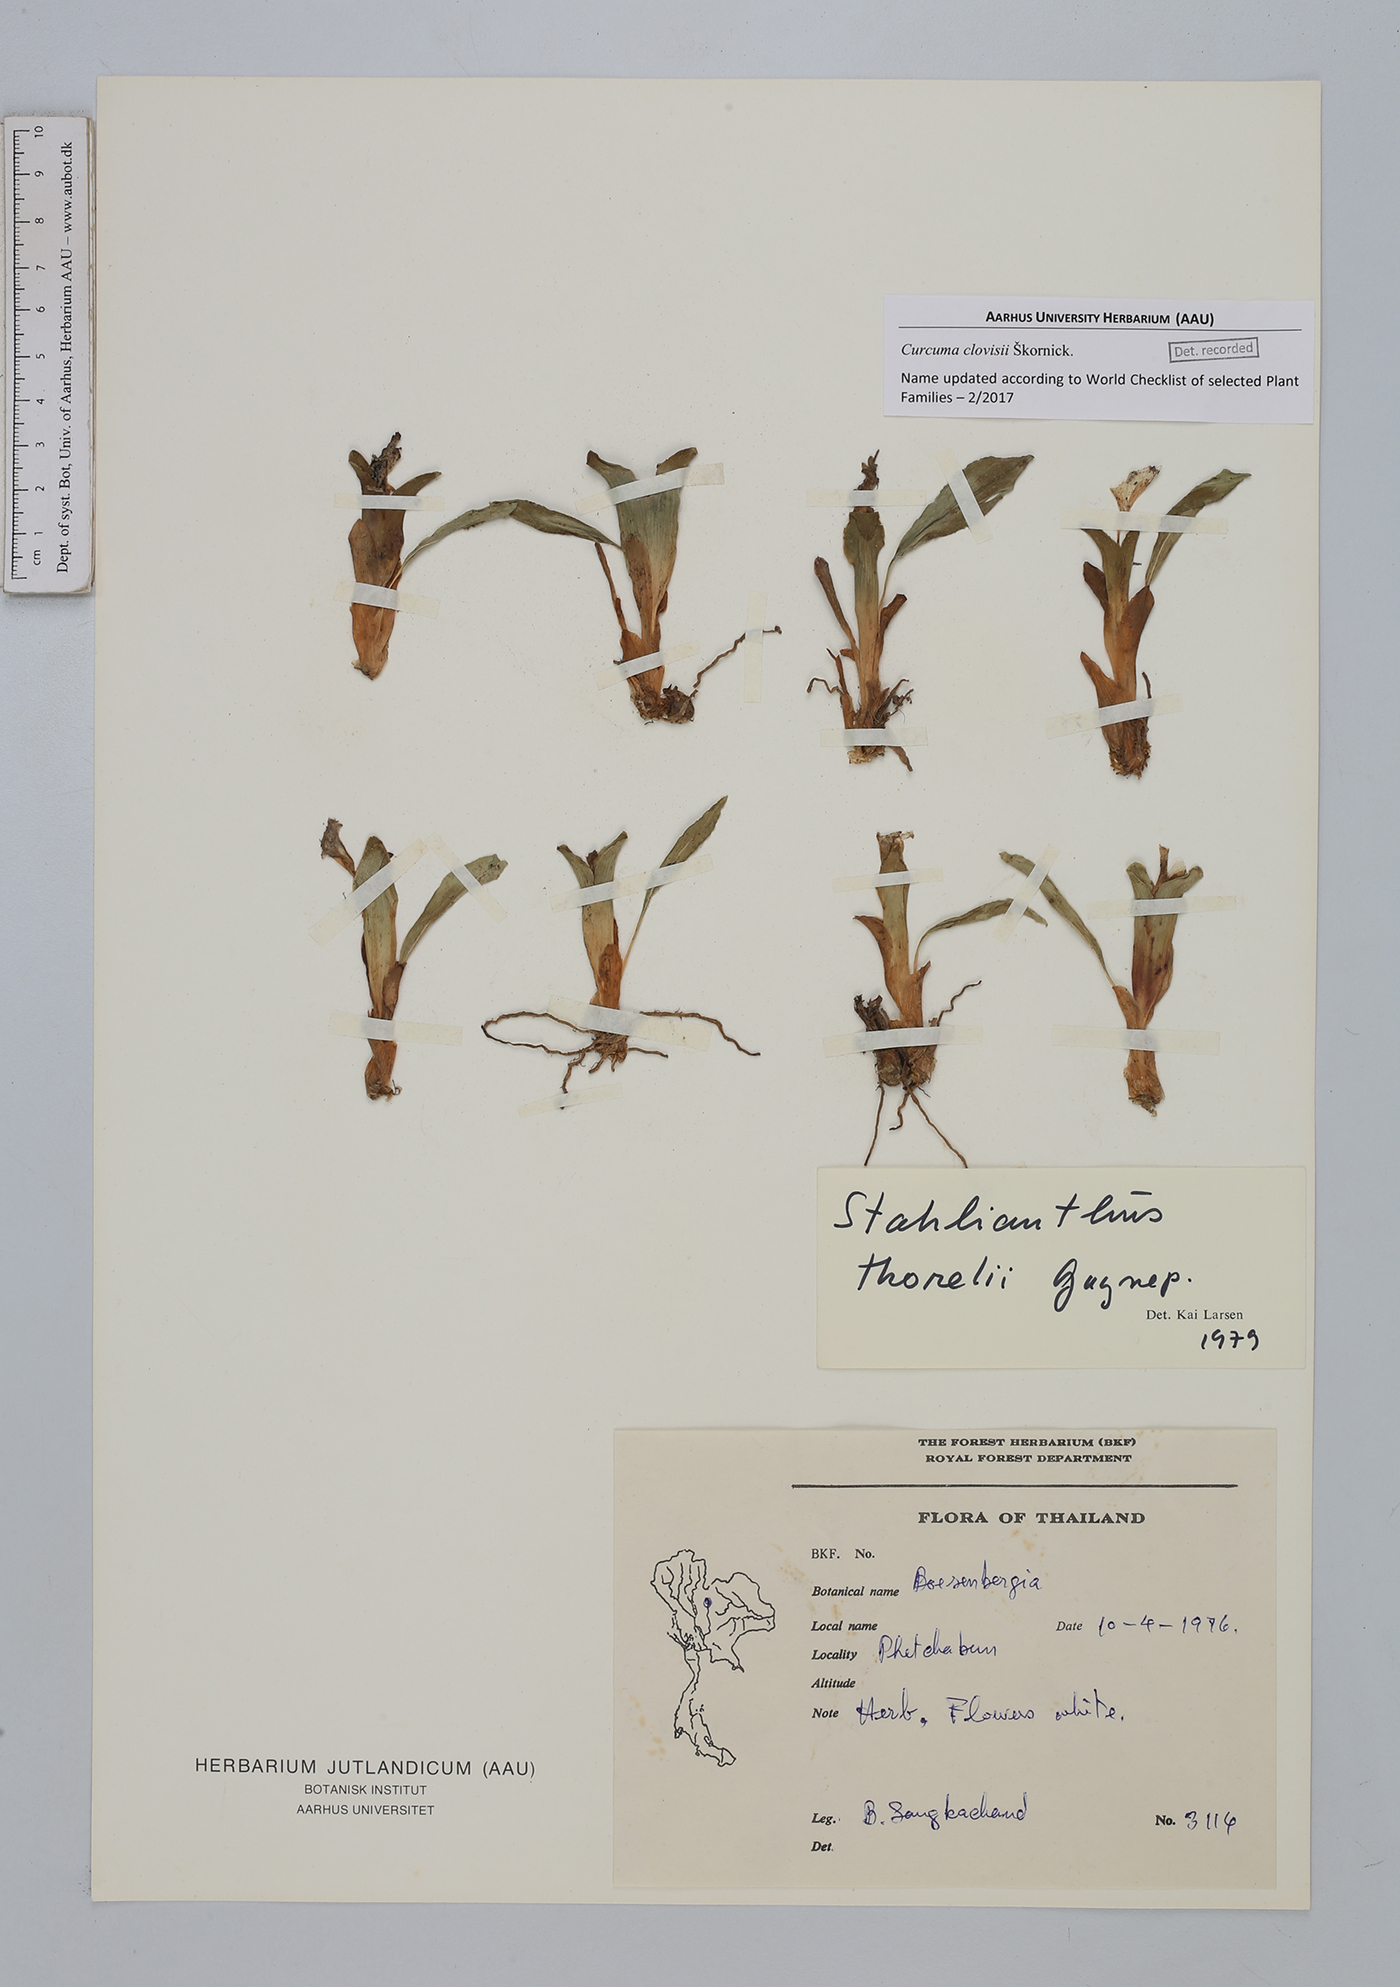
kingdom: Plantae
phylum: Tracheophyta
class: Liliopsida
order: Zingiberales
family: Zingiberaceae
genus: Curcuma
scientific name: Curcuma clovisii
